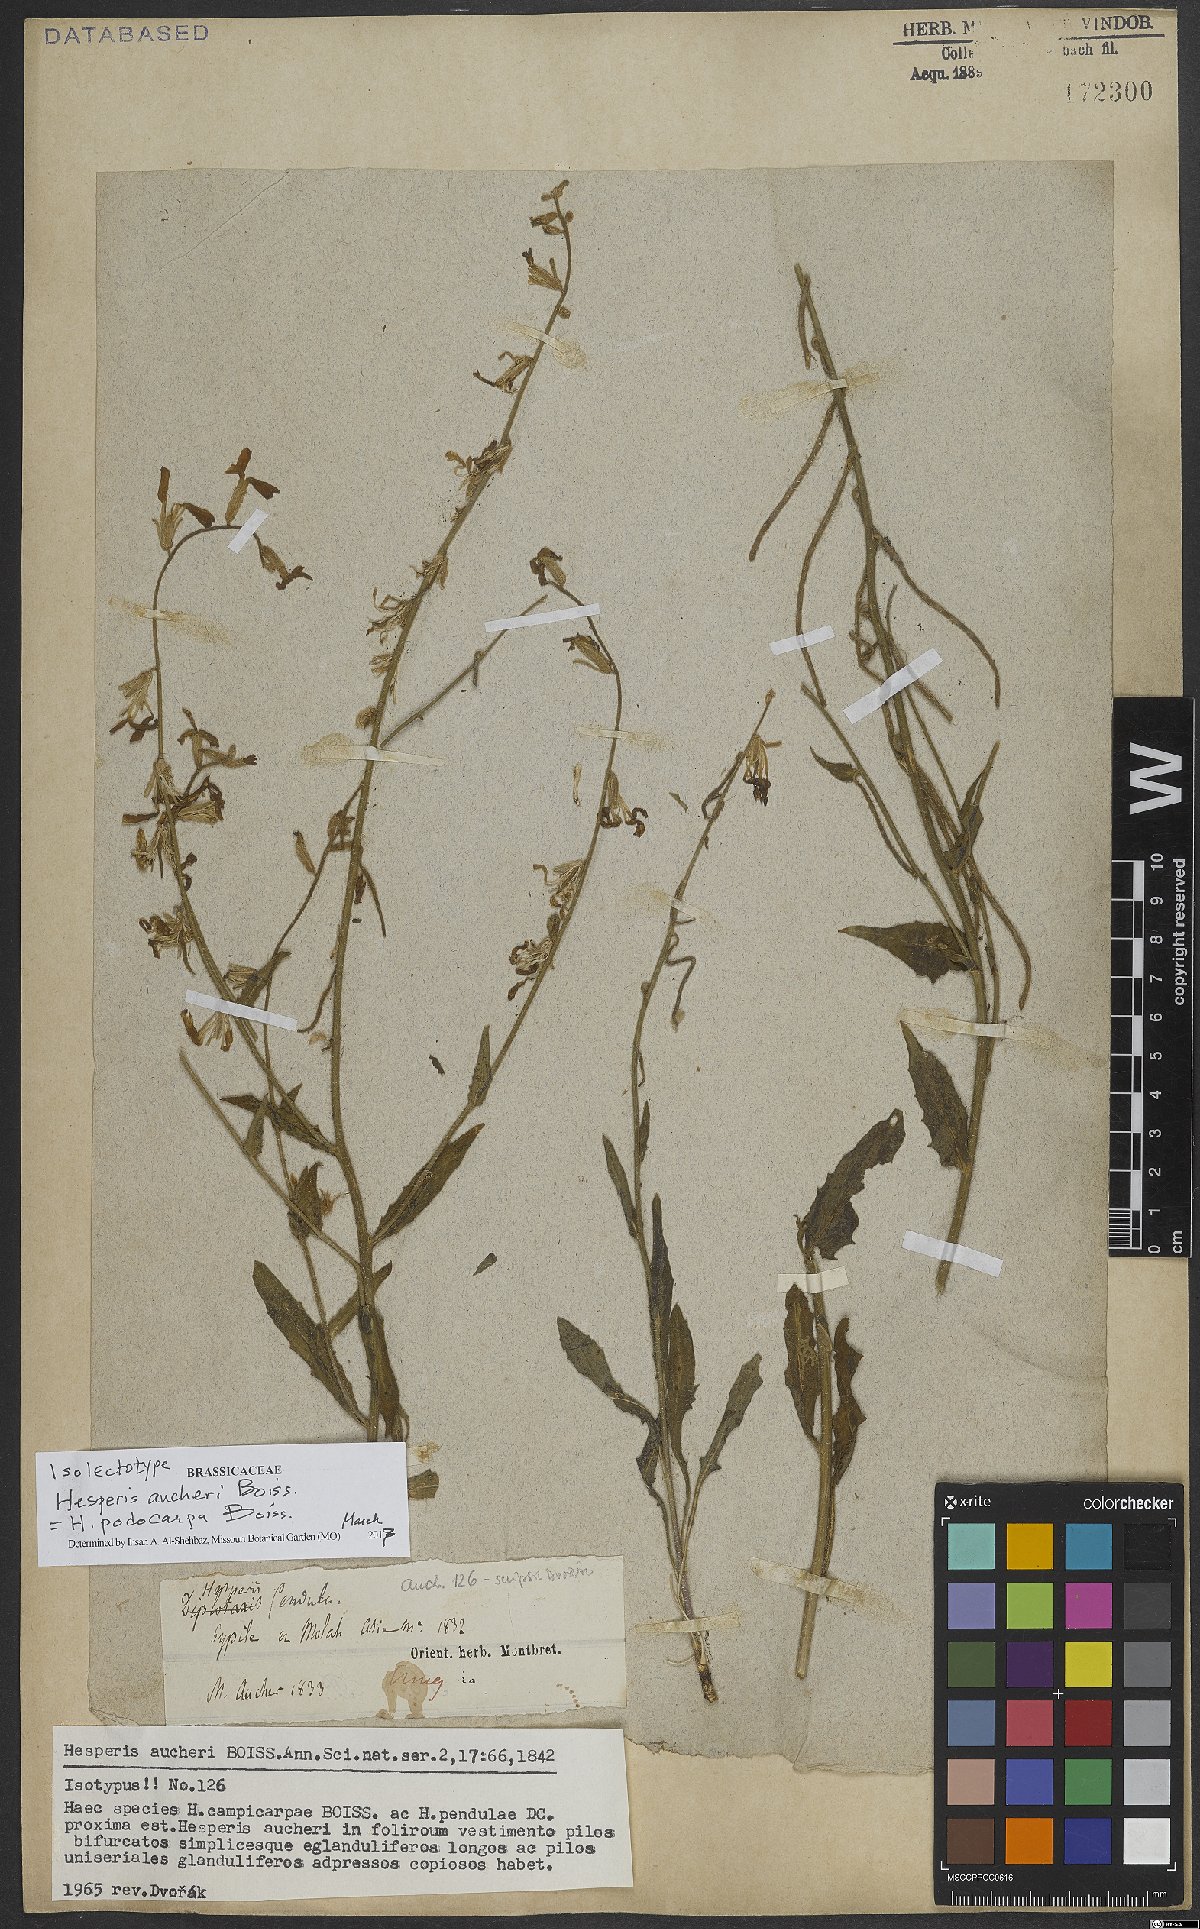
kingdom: Plantae
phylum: Tracheophyta
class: Magnoliopsida
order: Brassicales
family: Brassicaceae
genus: Hesperis
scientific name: Hesperis podocarpa
